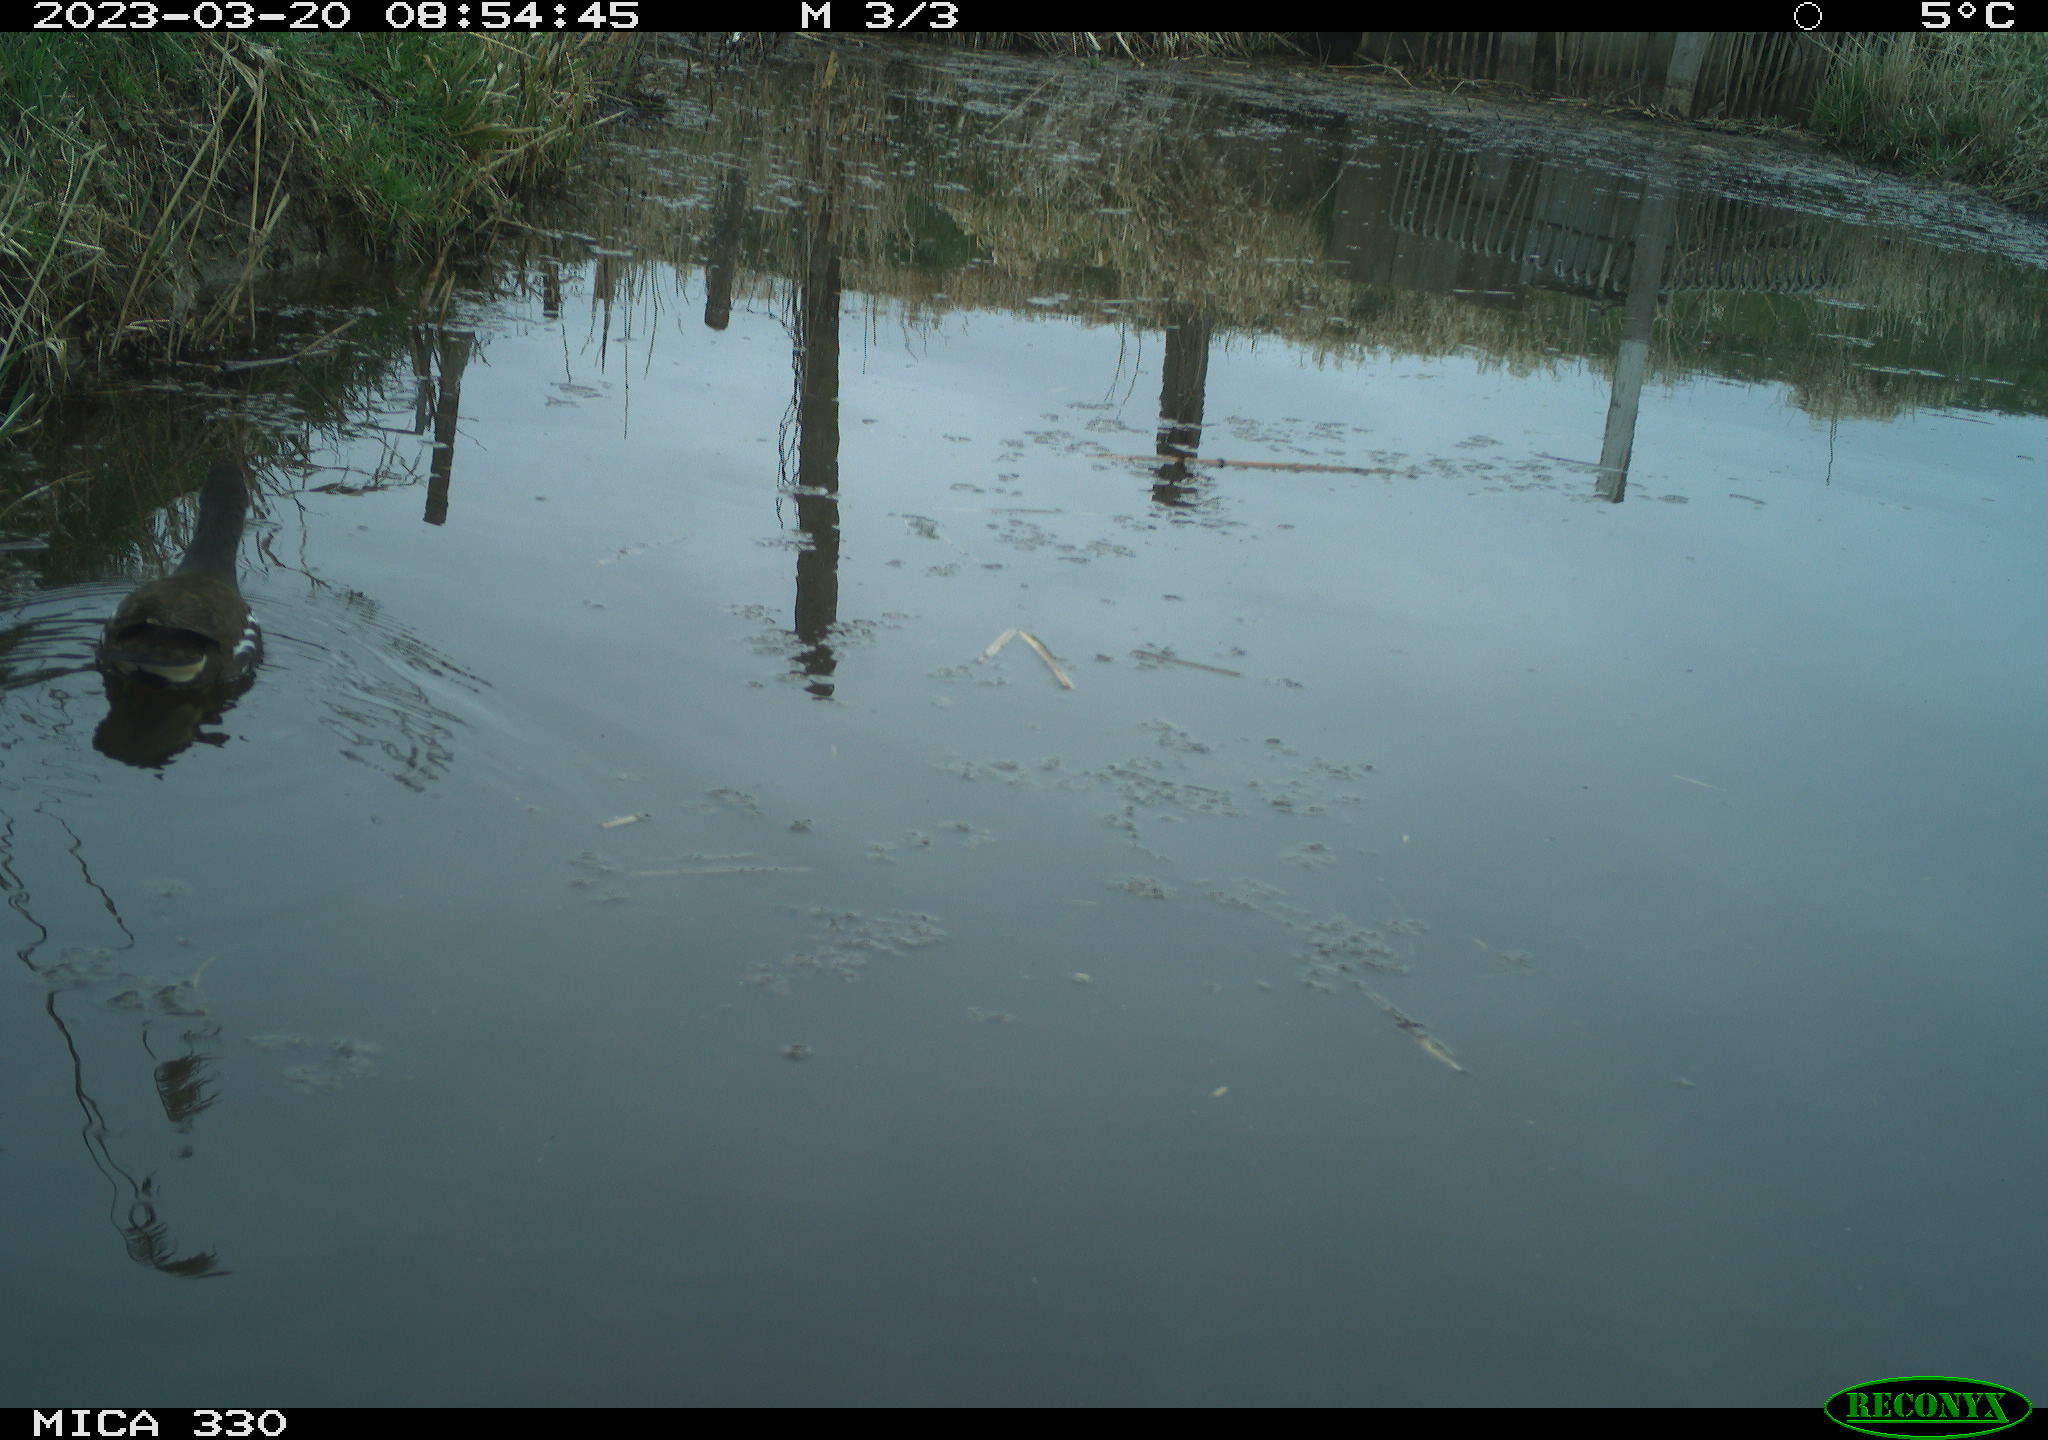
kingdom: Animalia
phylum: Chordata
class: Aves
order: Gruiformes
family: Rallidae
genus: Gallinula
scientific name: Gallinula chloropus
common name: Common moorhen
